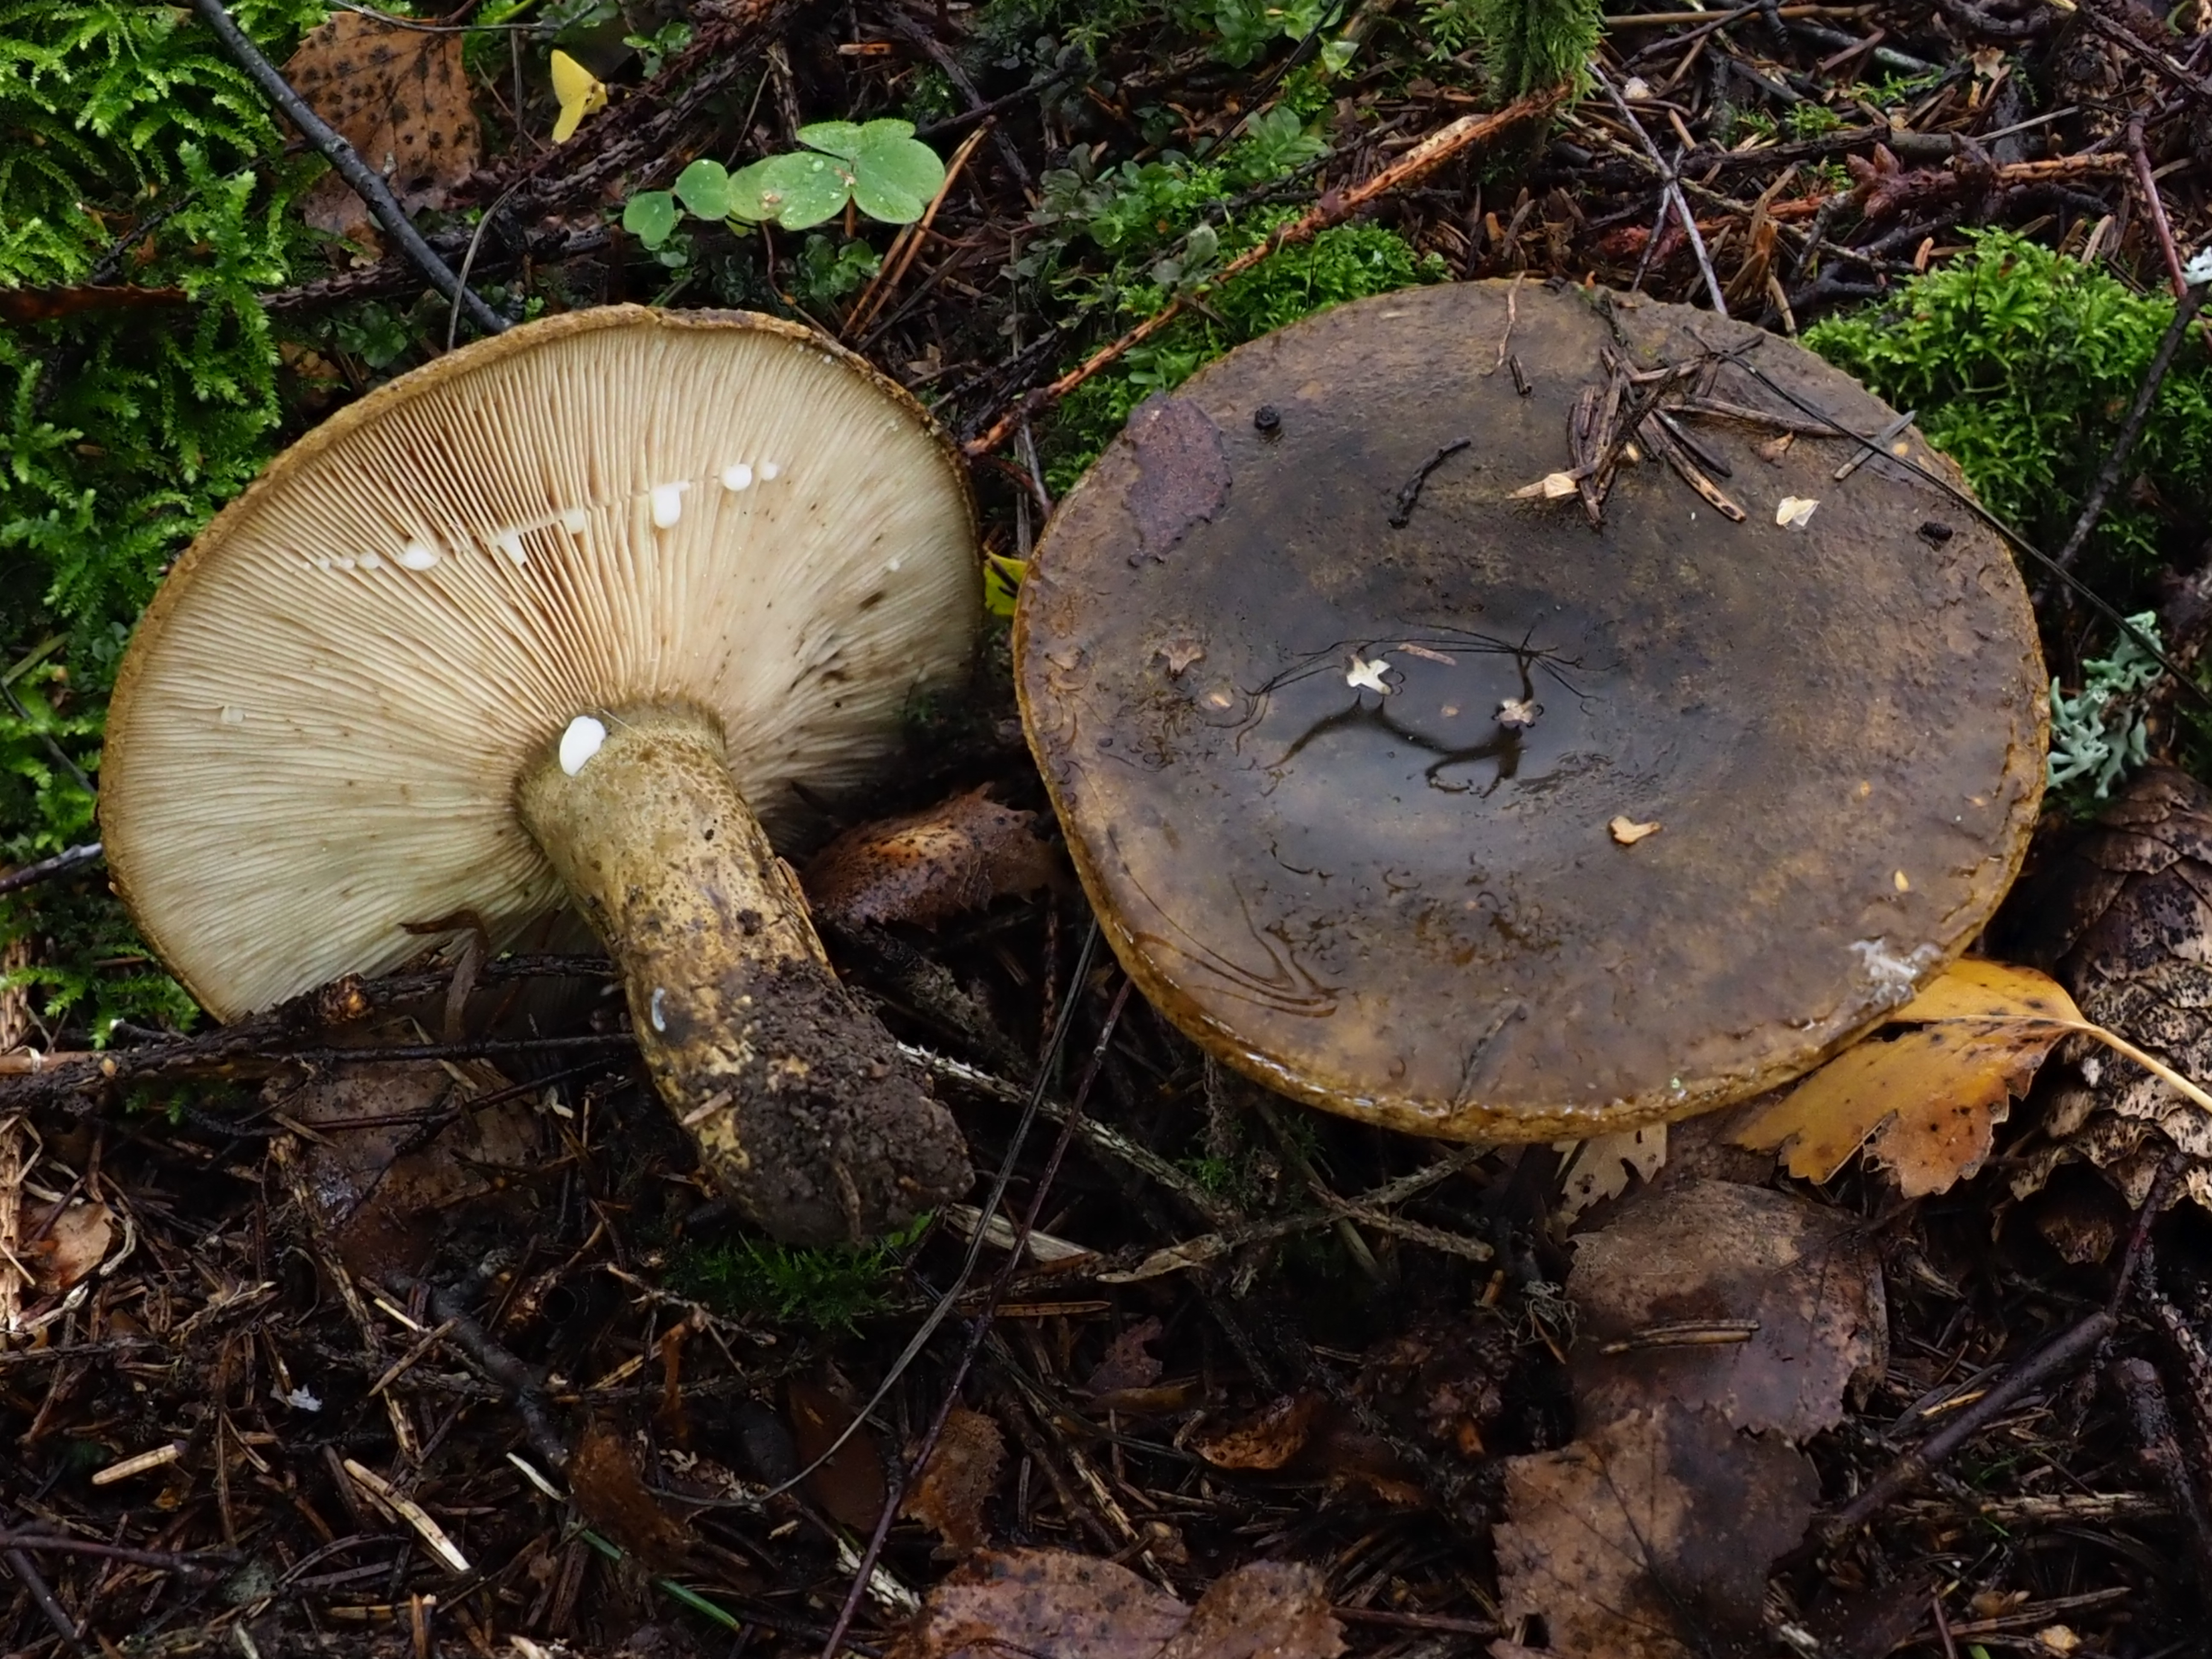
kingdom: Fungi
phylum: Basidiomycota
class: Agaricomycetes
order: Russulales
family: Russulaceae
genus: Lactarius
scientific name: Lactarius turpis
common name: Ugly milk-cap
